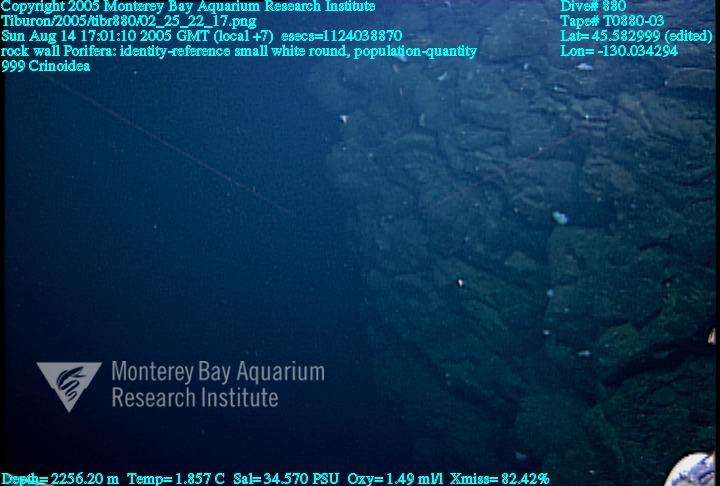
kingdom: Animalia
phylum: Porifera
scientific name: Porifera
